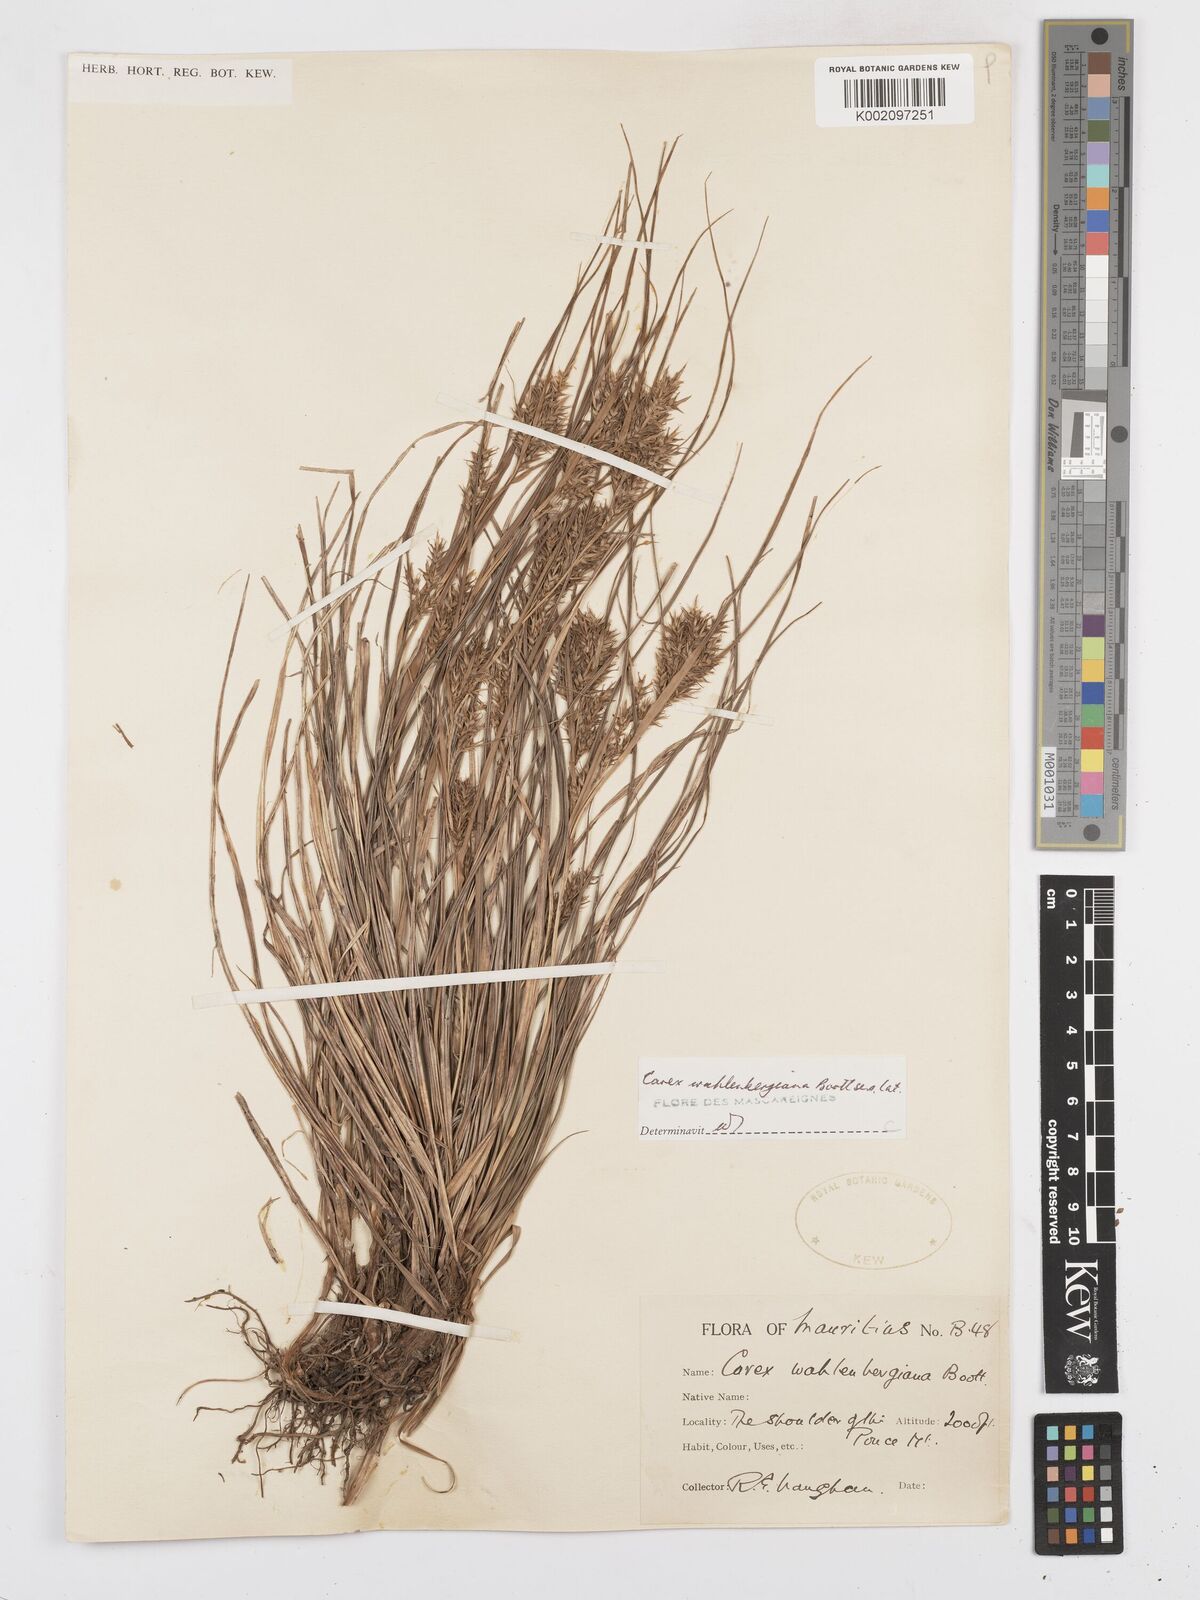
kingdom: Plantae
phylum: Tracheophyta
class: Liliopsida
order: Poales
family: Cyperaceae
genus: Carex
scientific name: Carex wahlenbergiana
